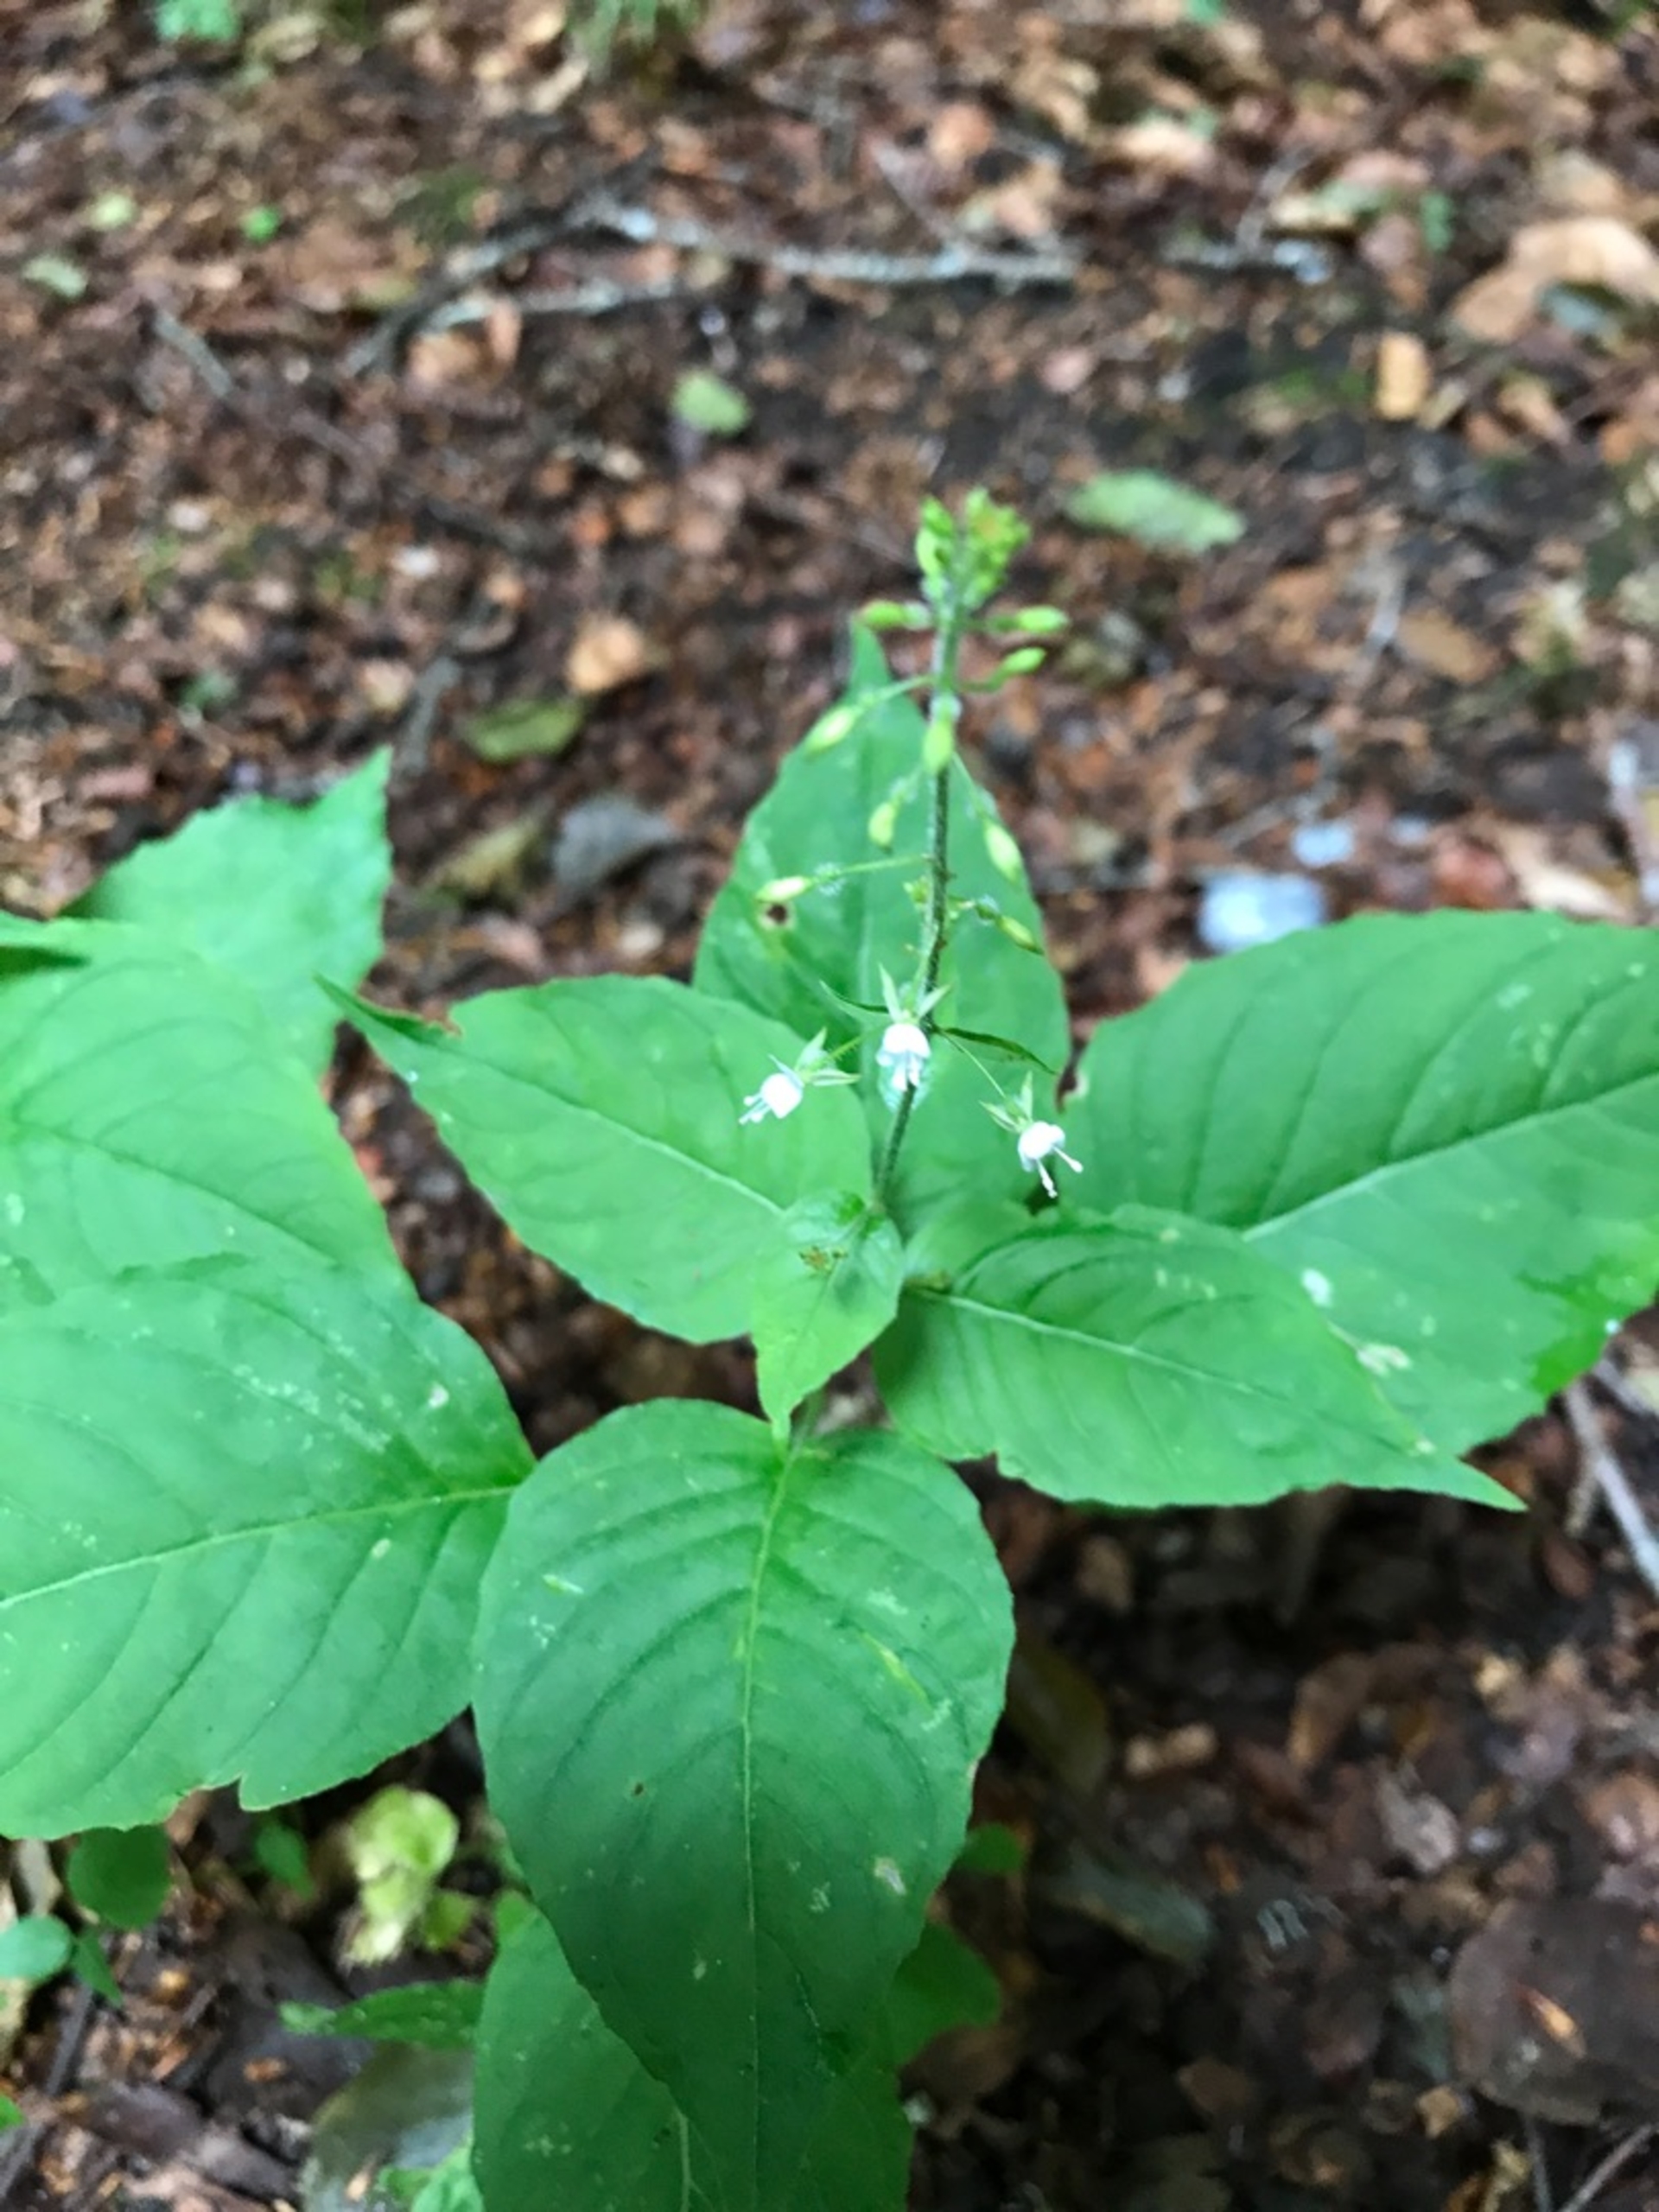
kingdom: Plantae
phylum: Tracheophyta
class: Magnoliopsida
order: Myrtales
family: Onagraceae
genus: Circaea
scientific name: Circaea lutetiana
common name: Dunet steffensurt
